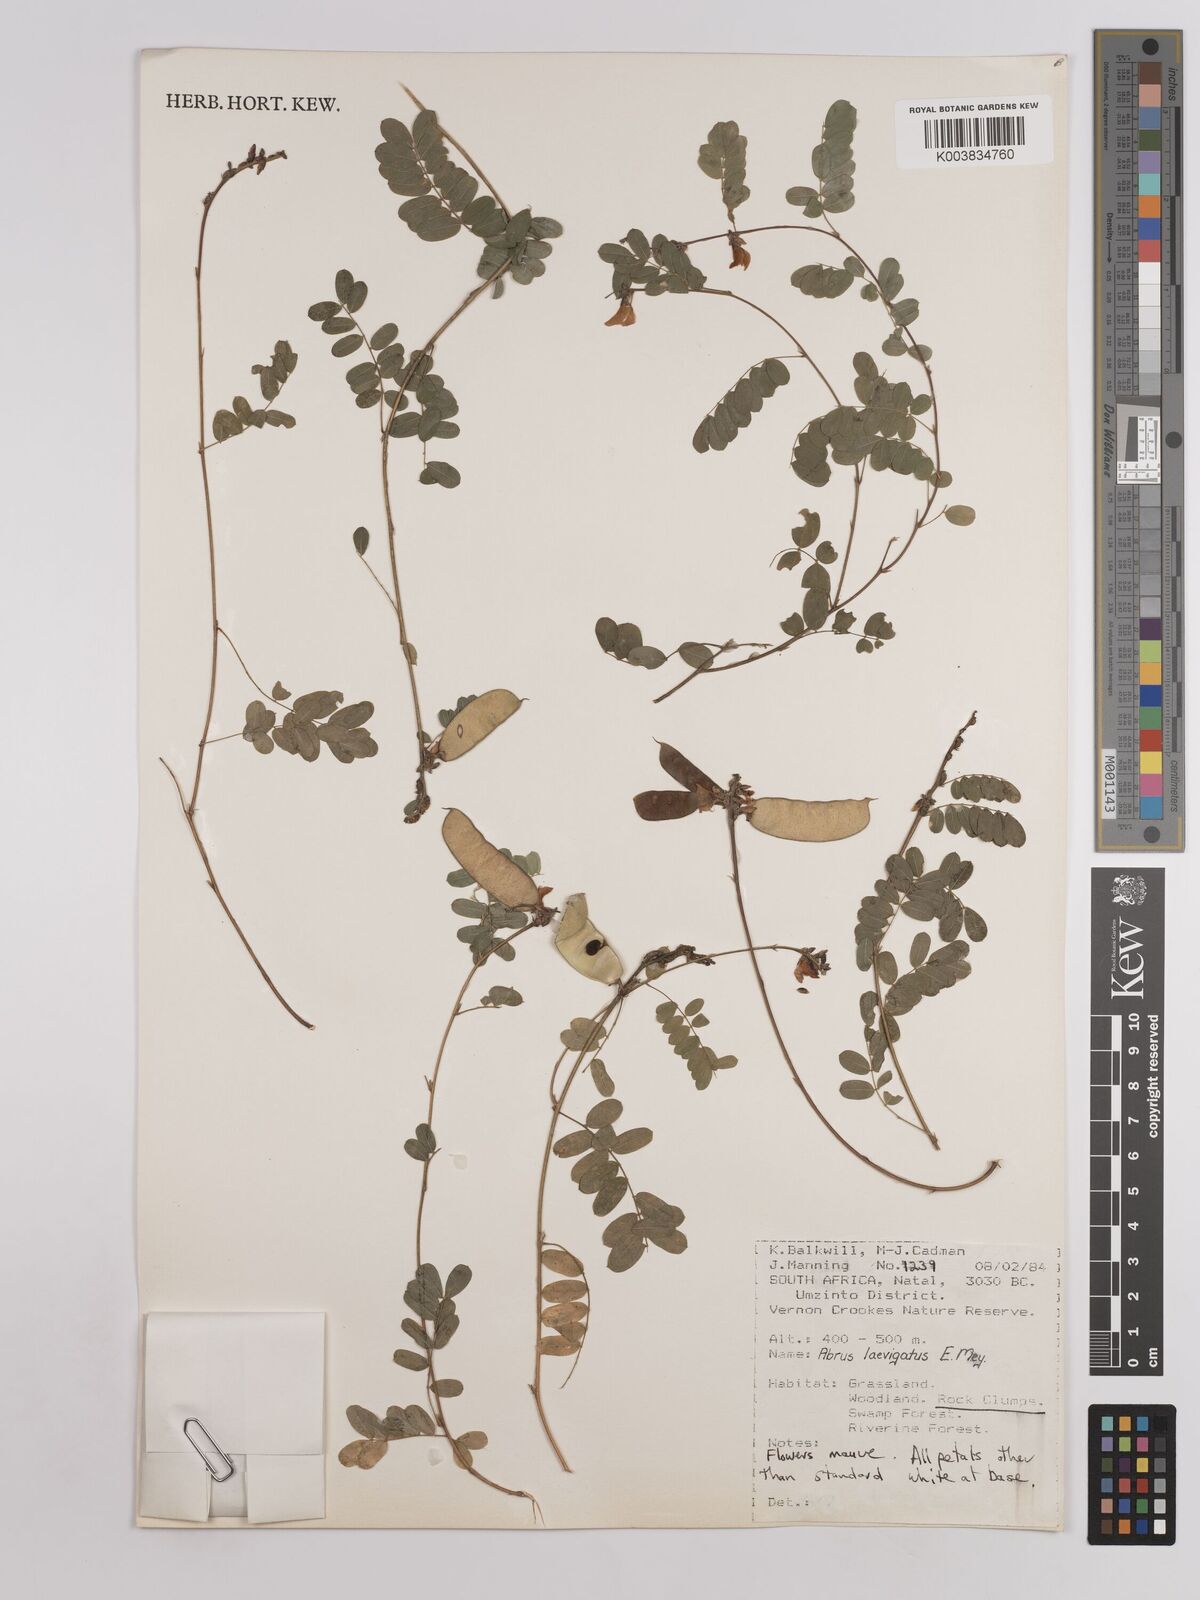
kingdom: Plantae
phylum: Tracheophyta
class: Magnoliopsida
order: Fabales
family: Fabaceae
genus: Abrus
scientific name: Abrus laevigatus
